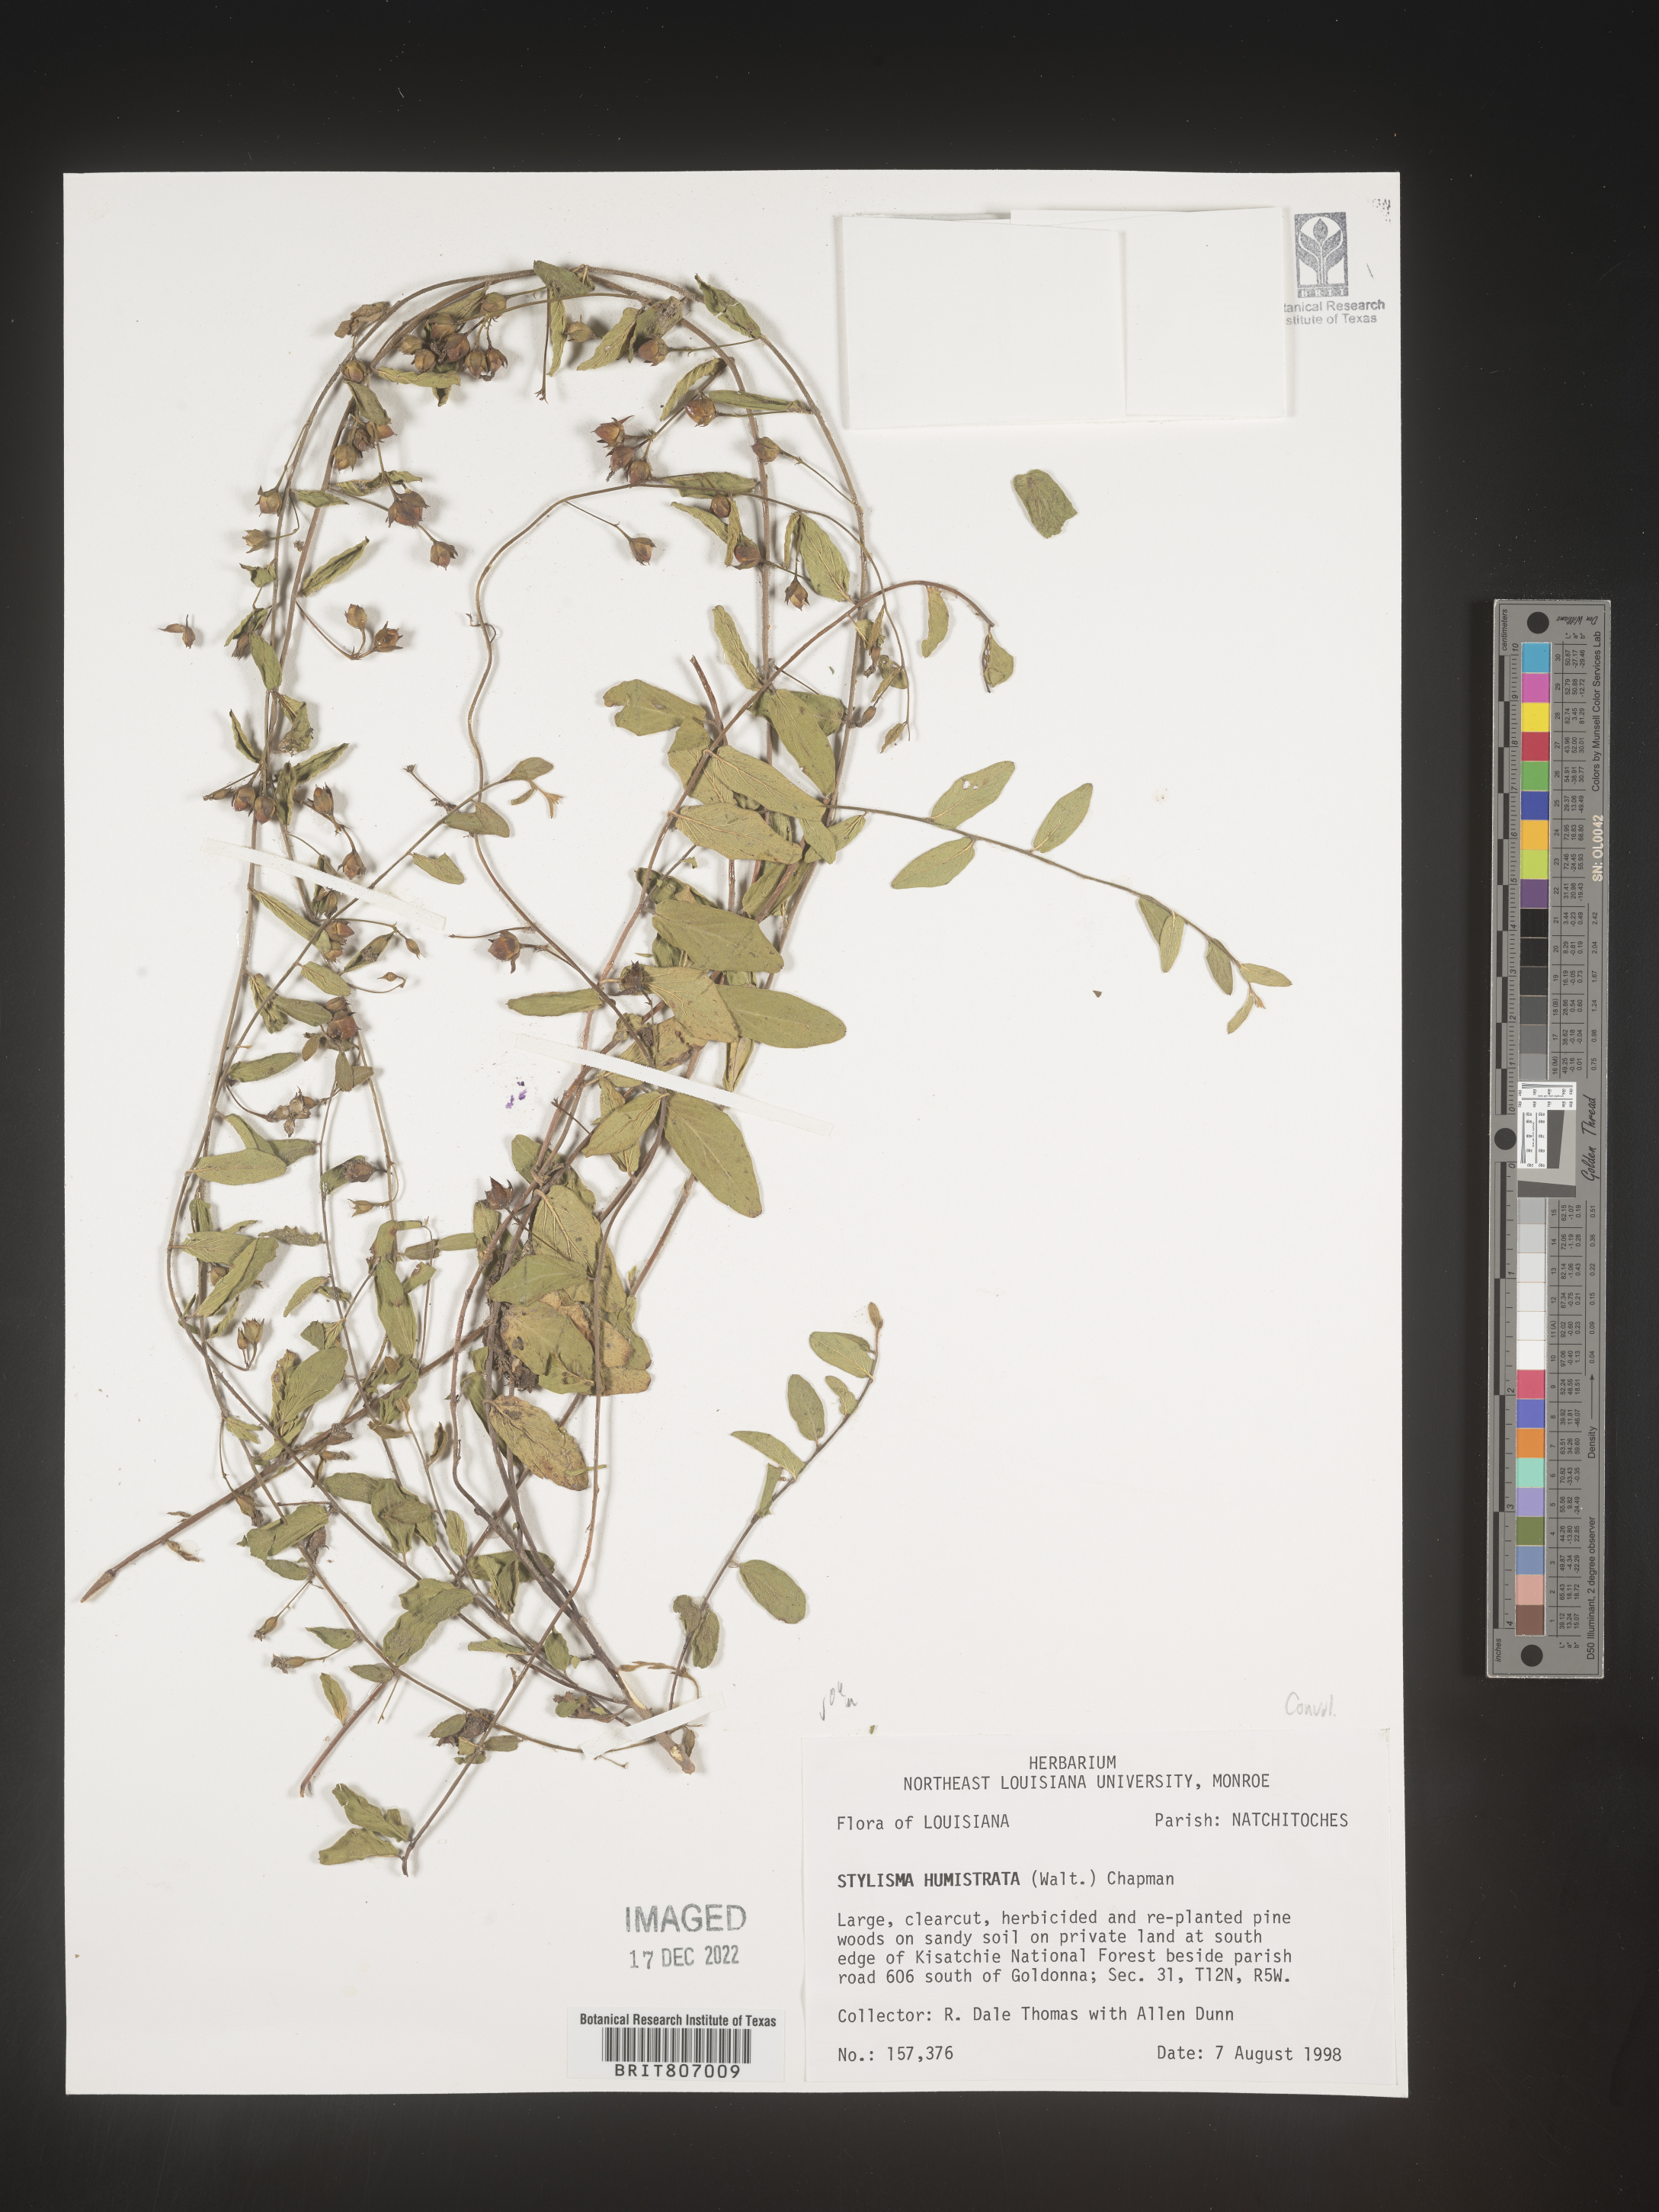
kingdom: Plantae
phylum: Tracheophyta
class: Magnoliopsida
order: Solanales
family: Convolvulaceae
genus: Stylisma
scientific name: Stylisma humistrata
